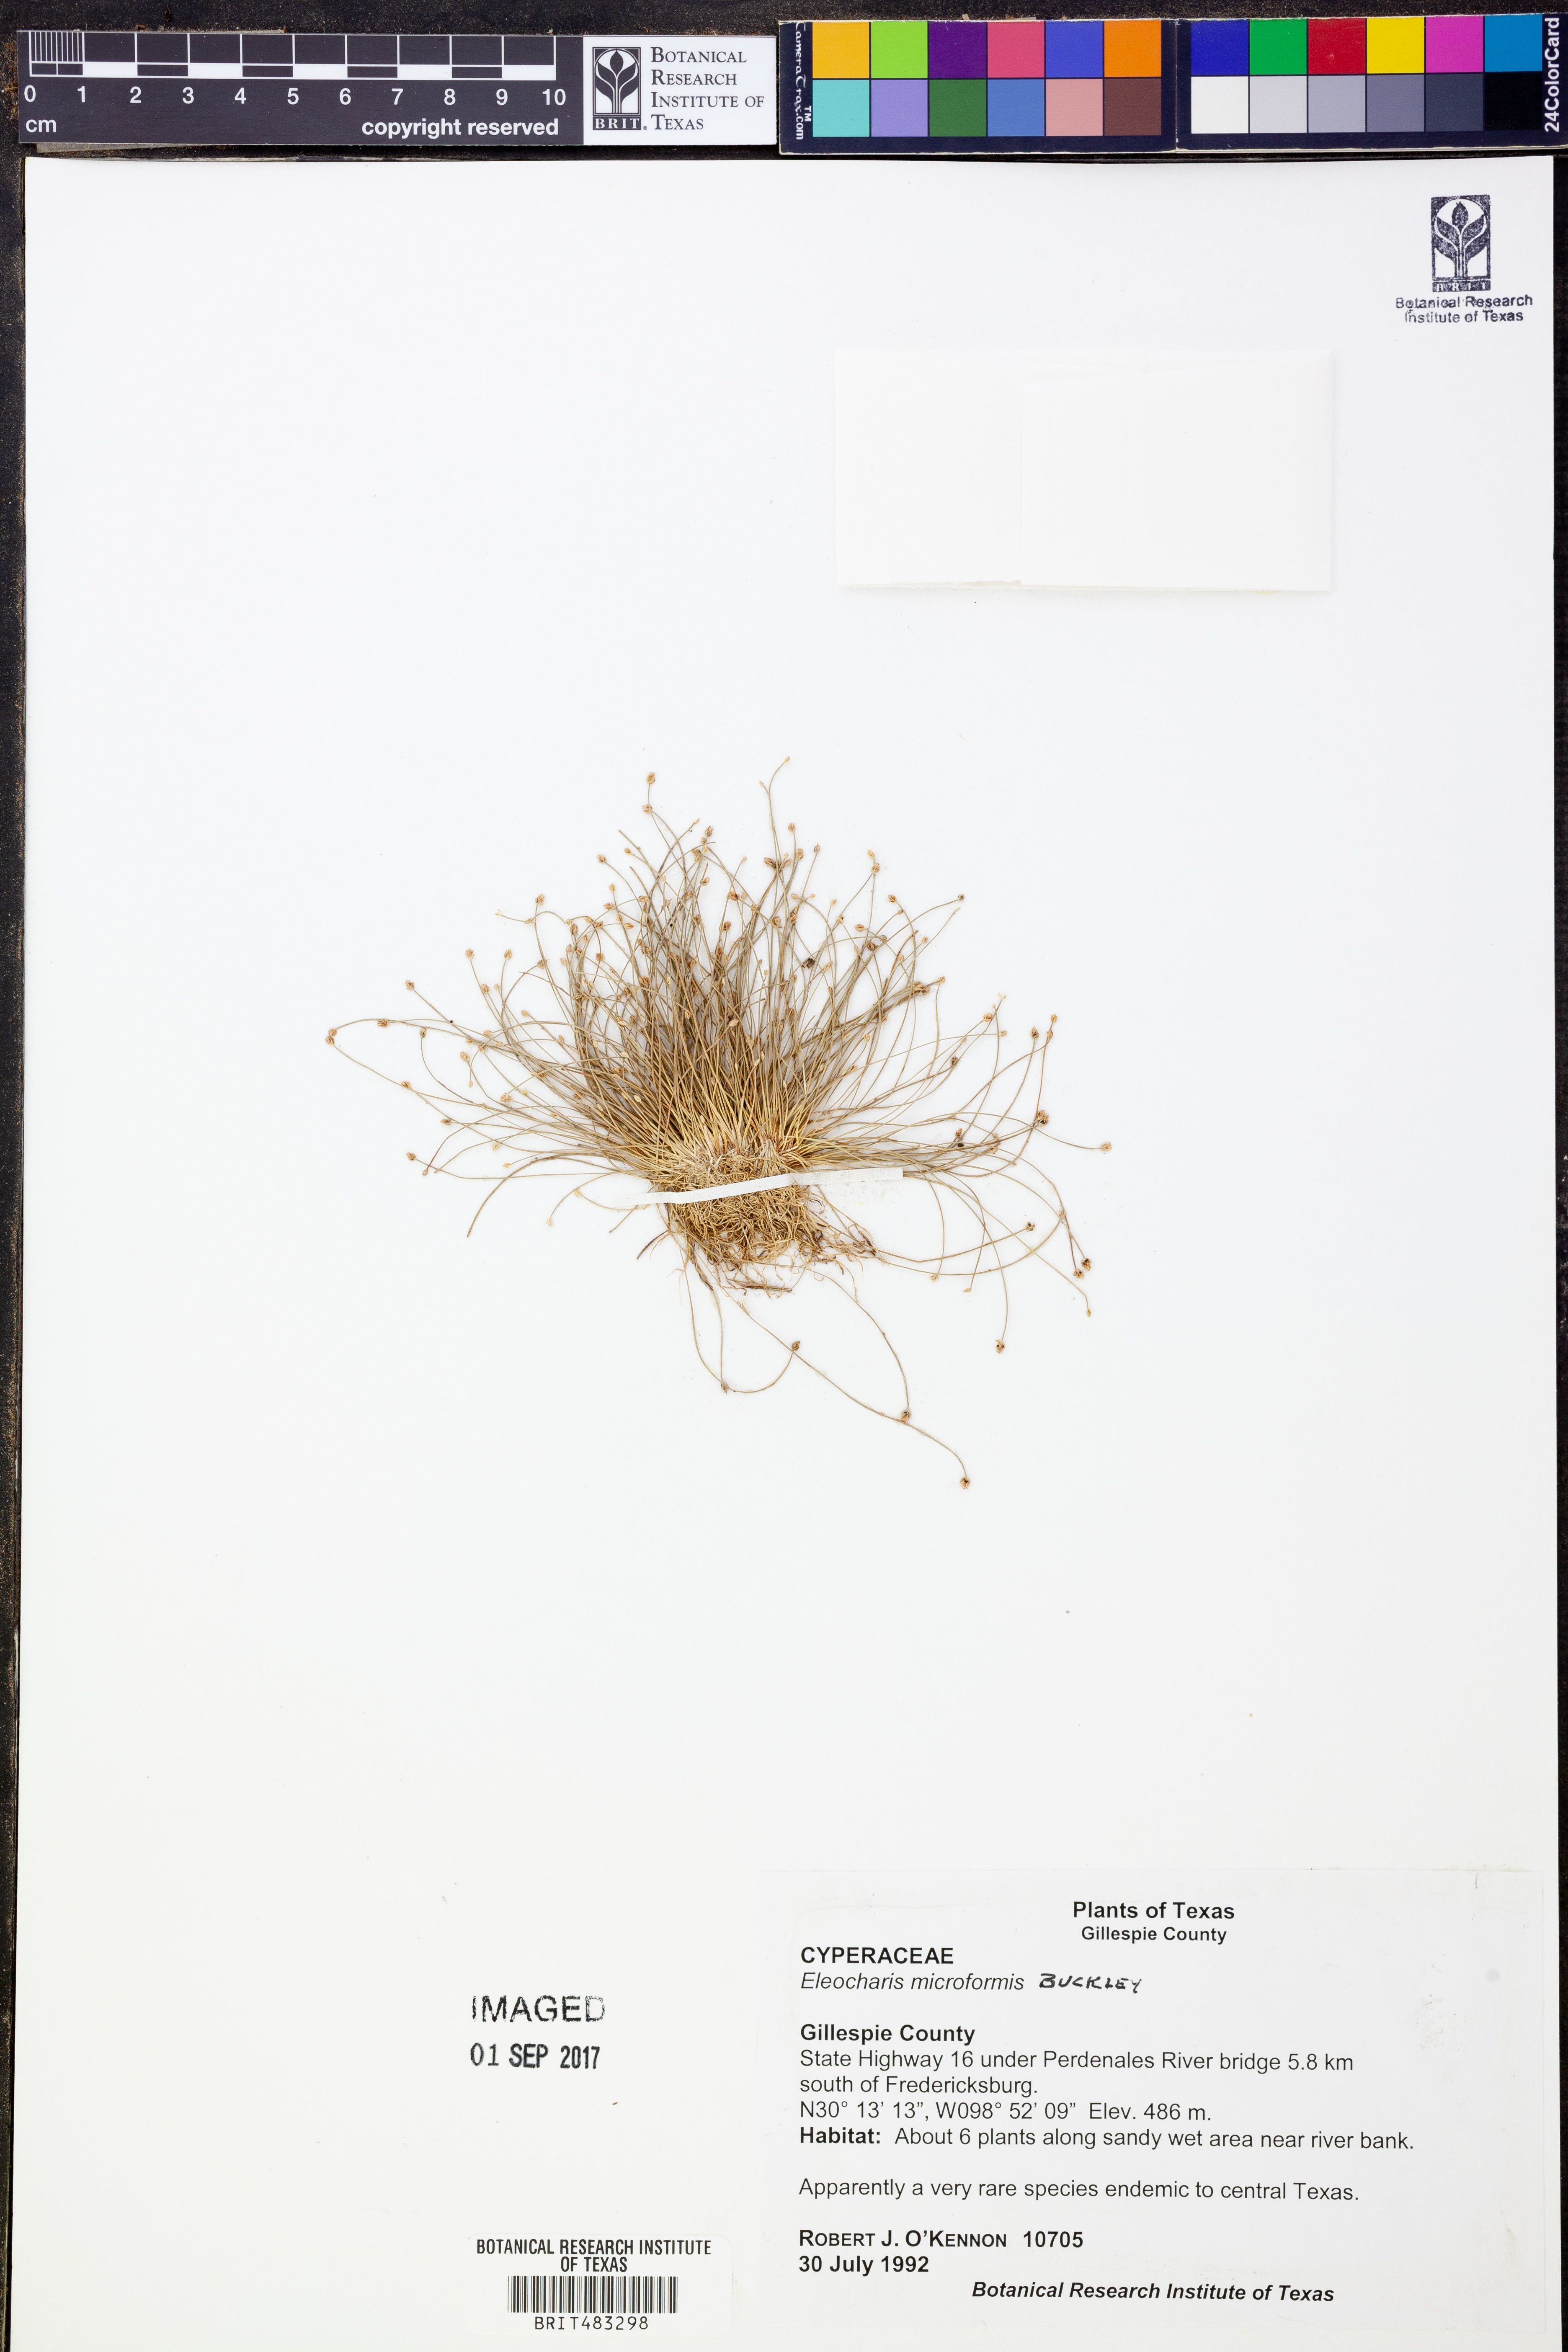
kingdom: Plantae
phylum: Tracheophyta
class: Liliopsida
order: Poales
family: Cyperaceae
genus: Eleocharis
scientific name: Eleocharis microformis
